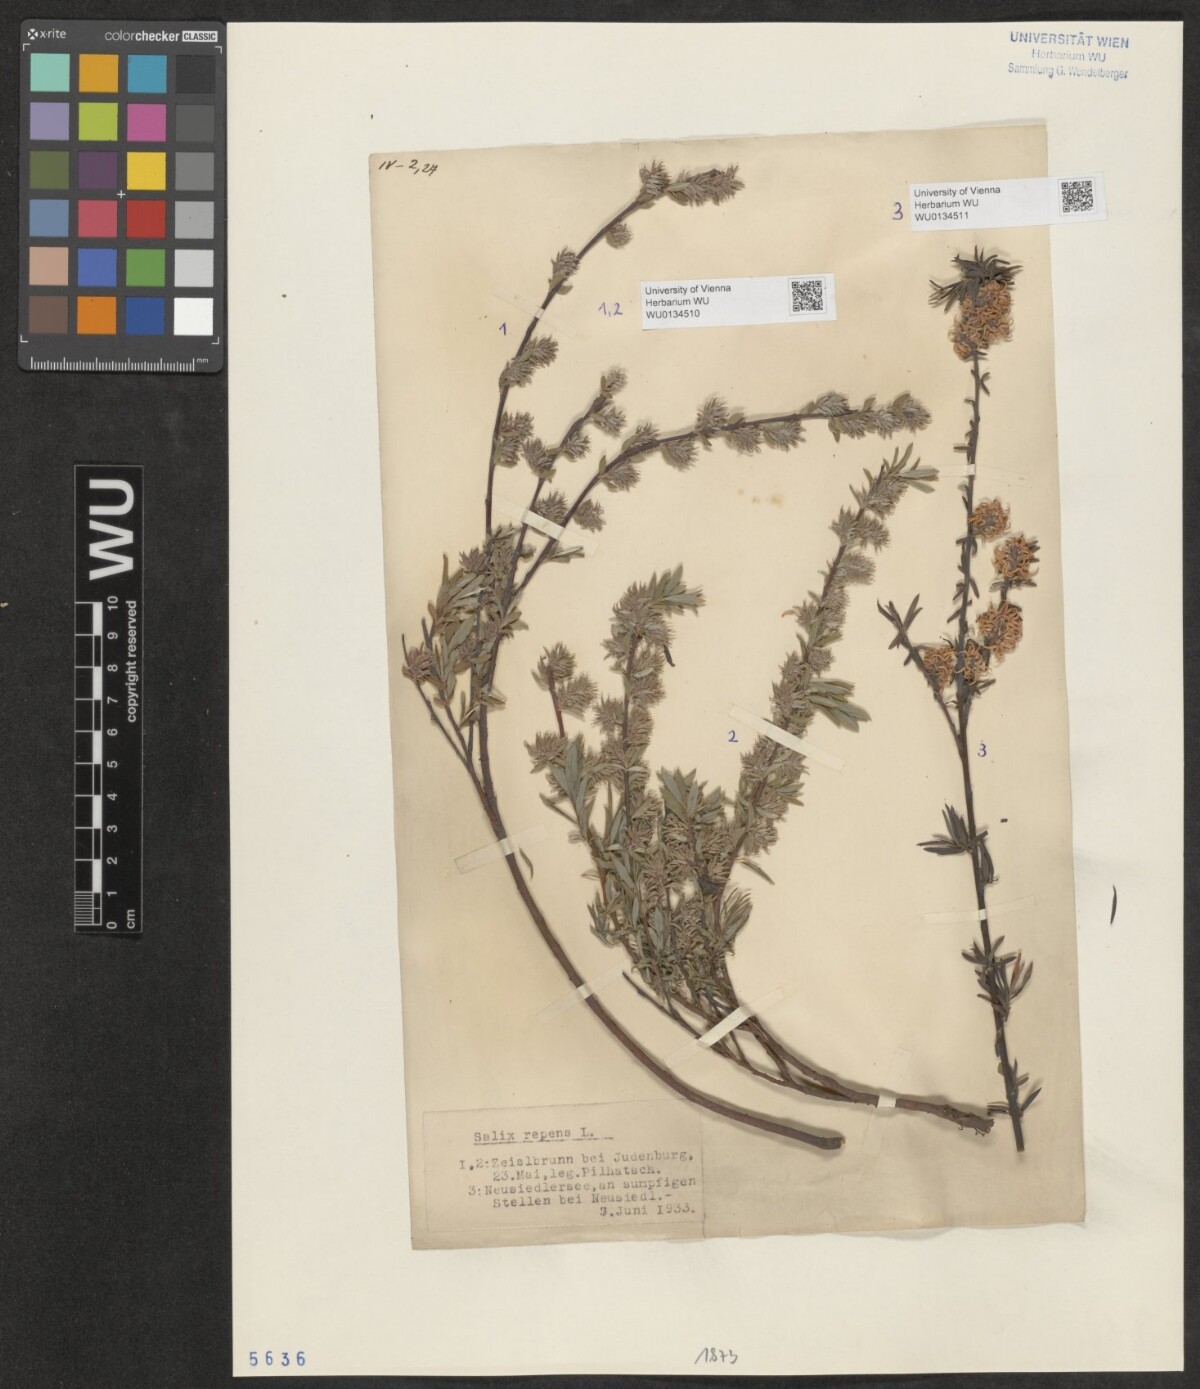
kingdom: Plantae
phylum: Tracheophyta
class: Magnoliopsida
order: Malpighiales
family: Salicaceae
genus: Salix
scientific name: Salix repens
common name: Creeping willow
